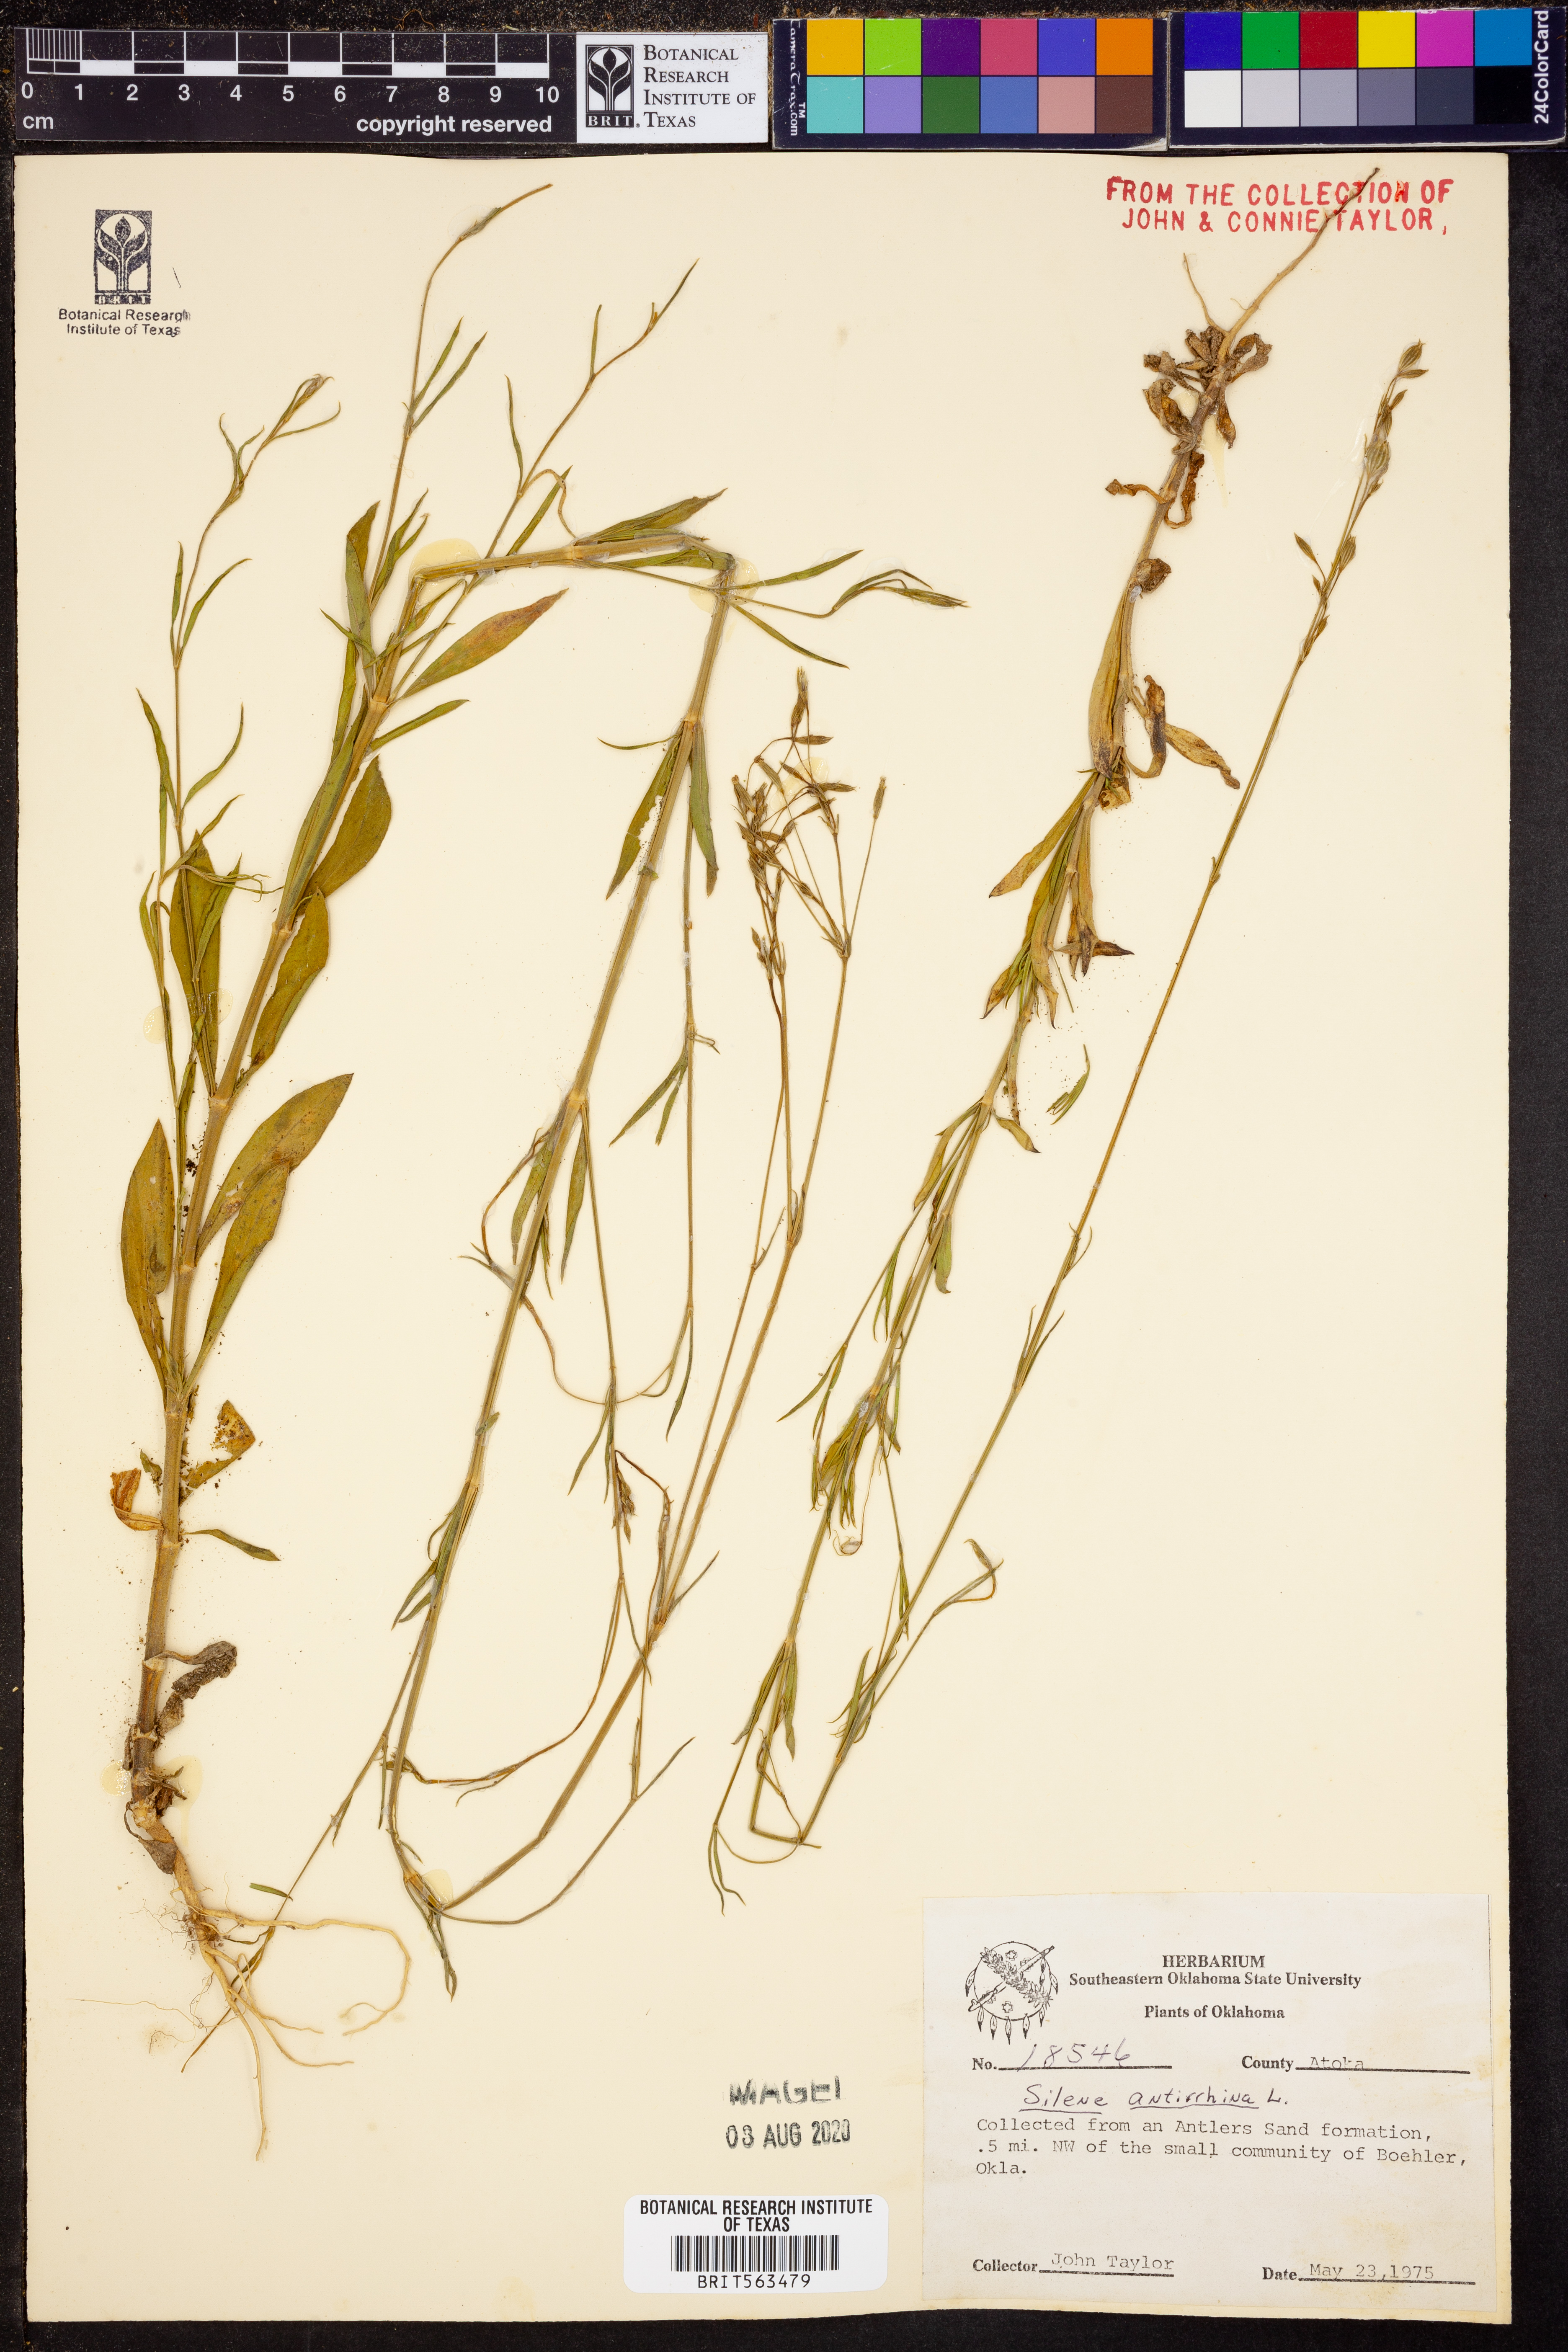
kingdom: Plantae
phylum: Tracheophyta
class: Magnoliopsida
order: Caryophyllales
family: Caryophyllaceae
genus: Silene
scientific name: Silene antirrhina
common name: Sleepy catchfly
